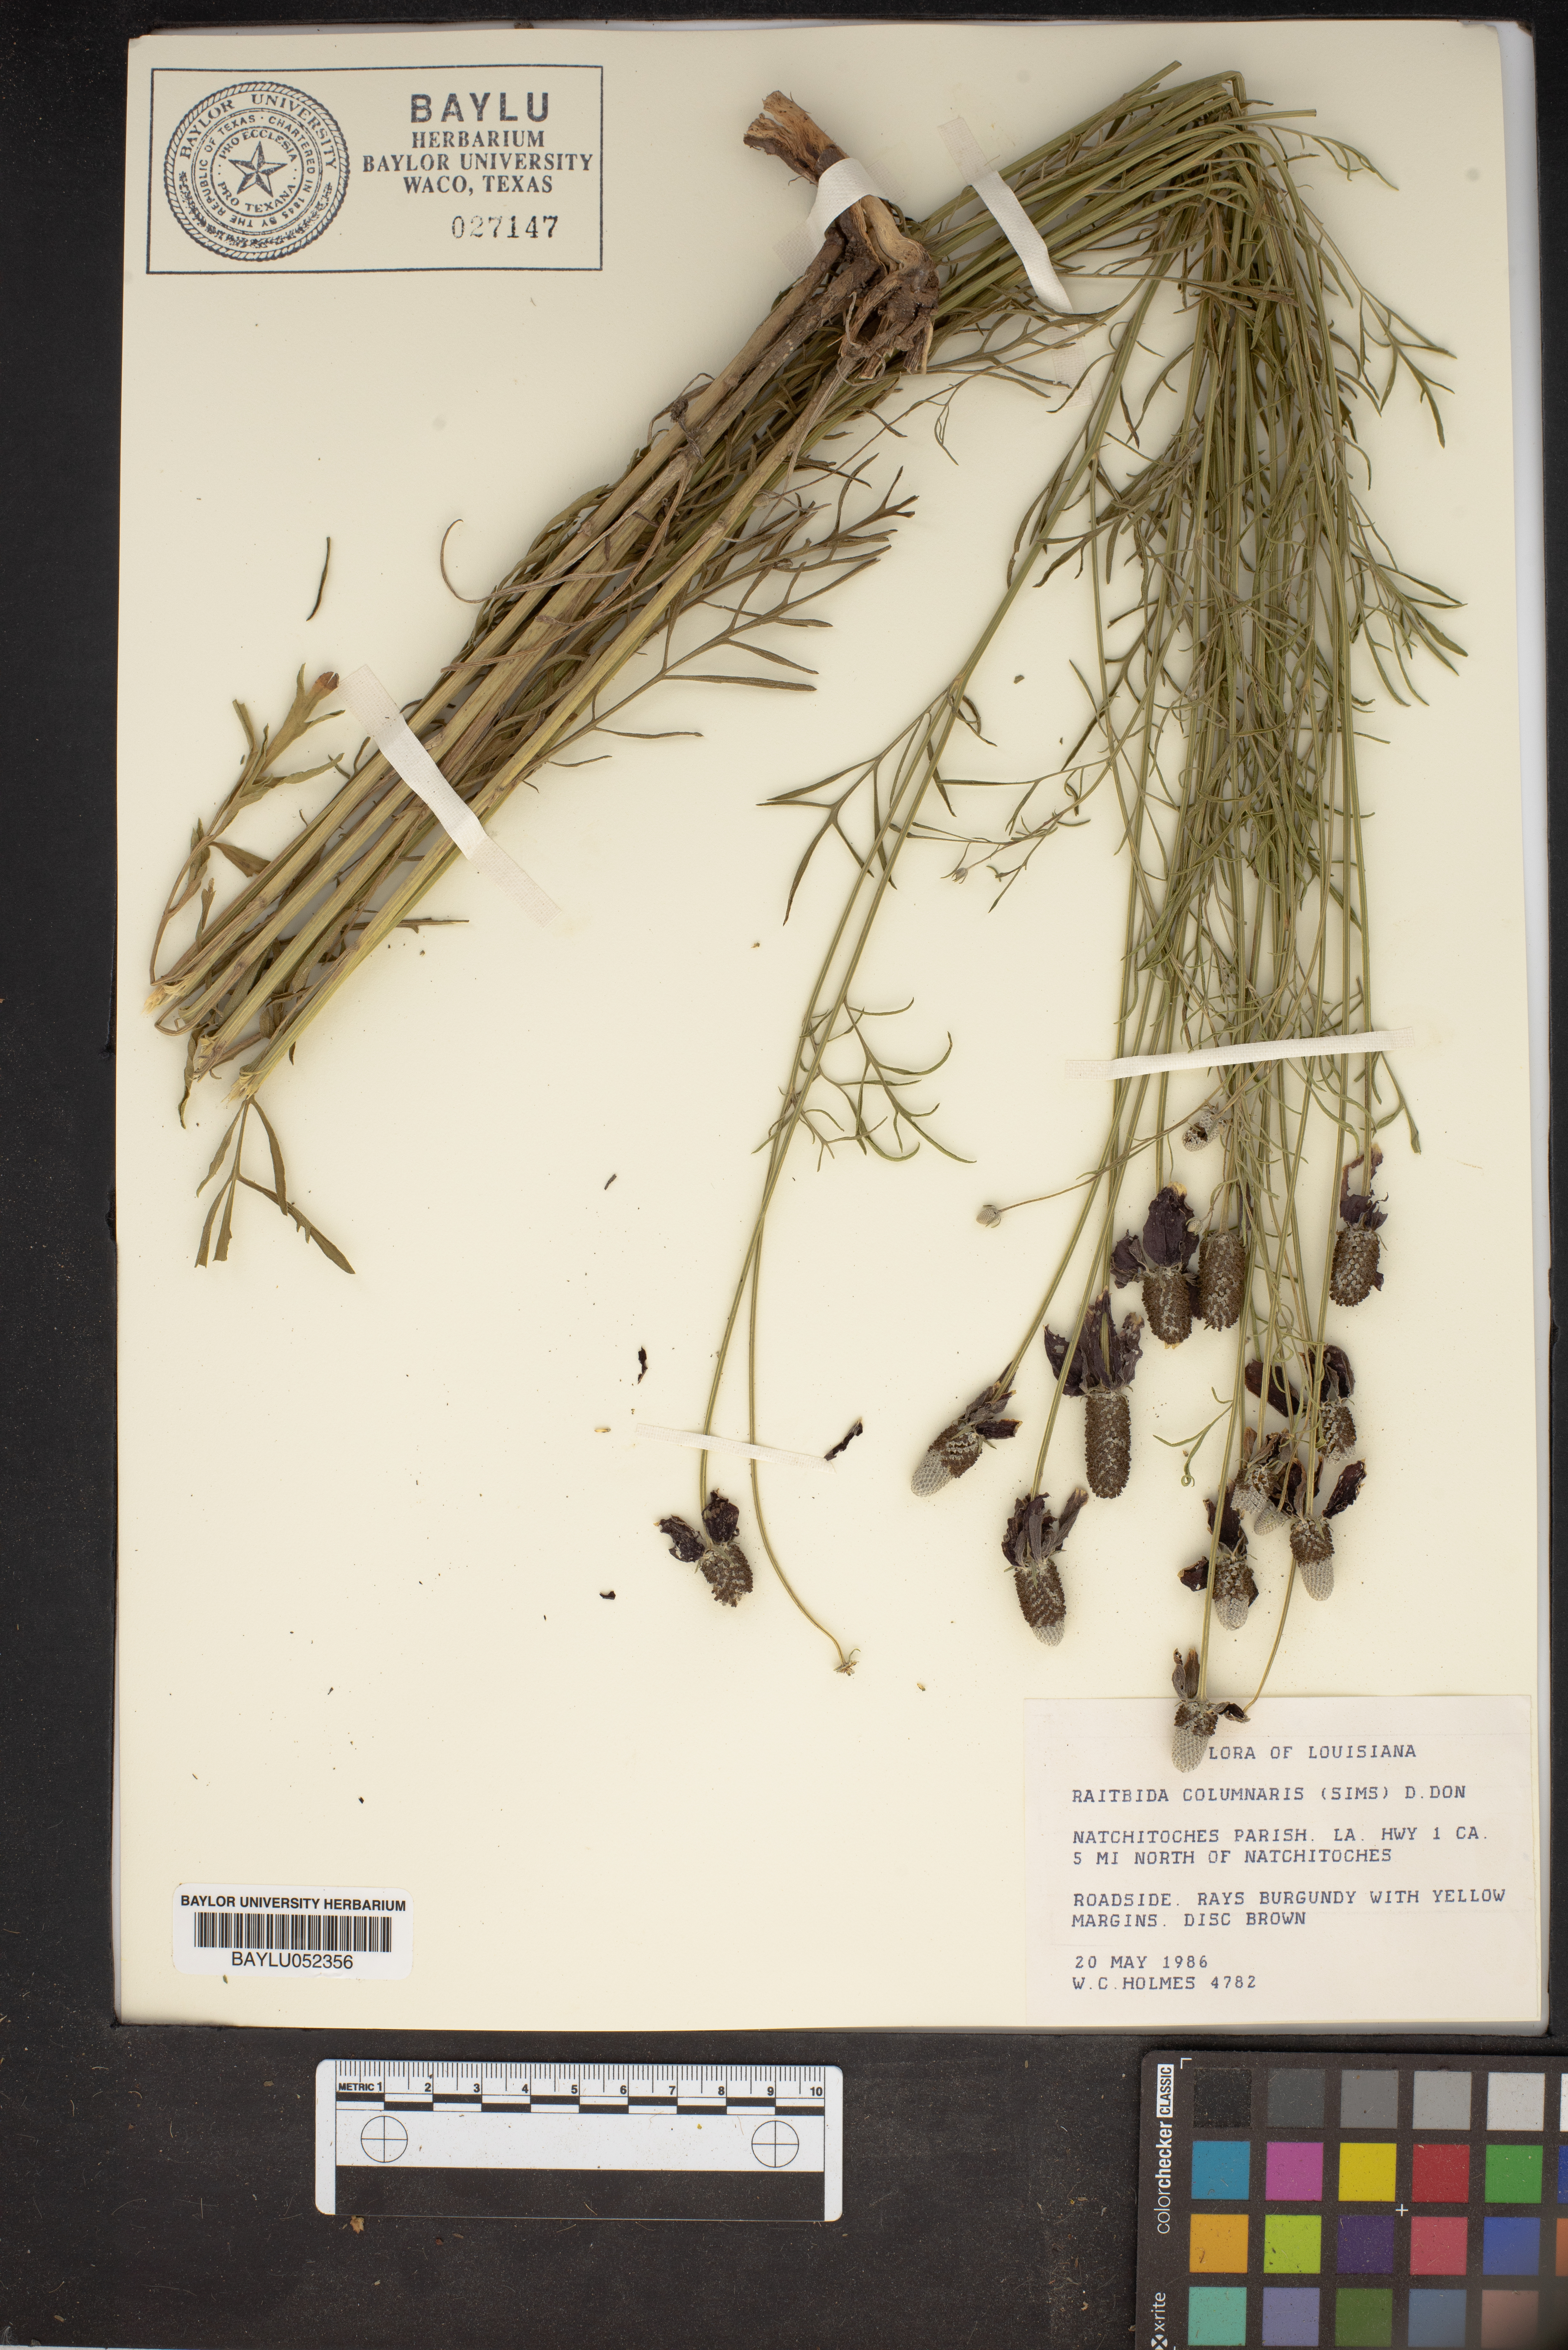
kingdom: Plantae
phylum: Tracheophyta
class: Magnoliopsida
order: Asterales
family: Asteraceae
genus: Ratibida
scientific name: Ratibida
